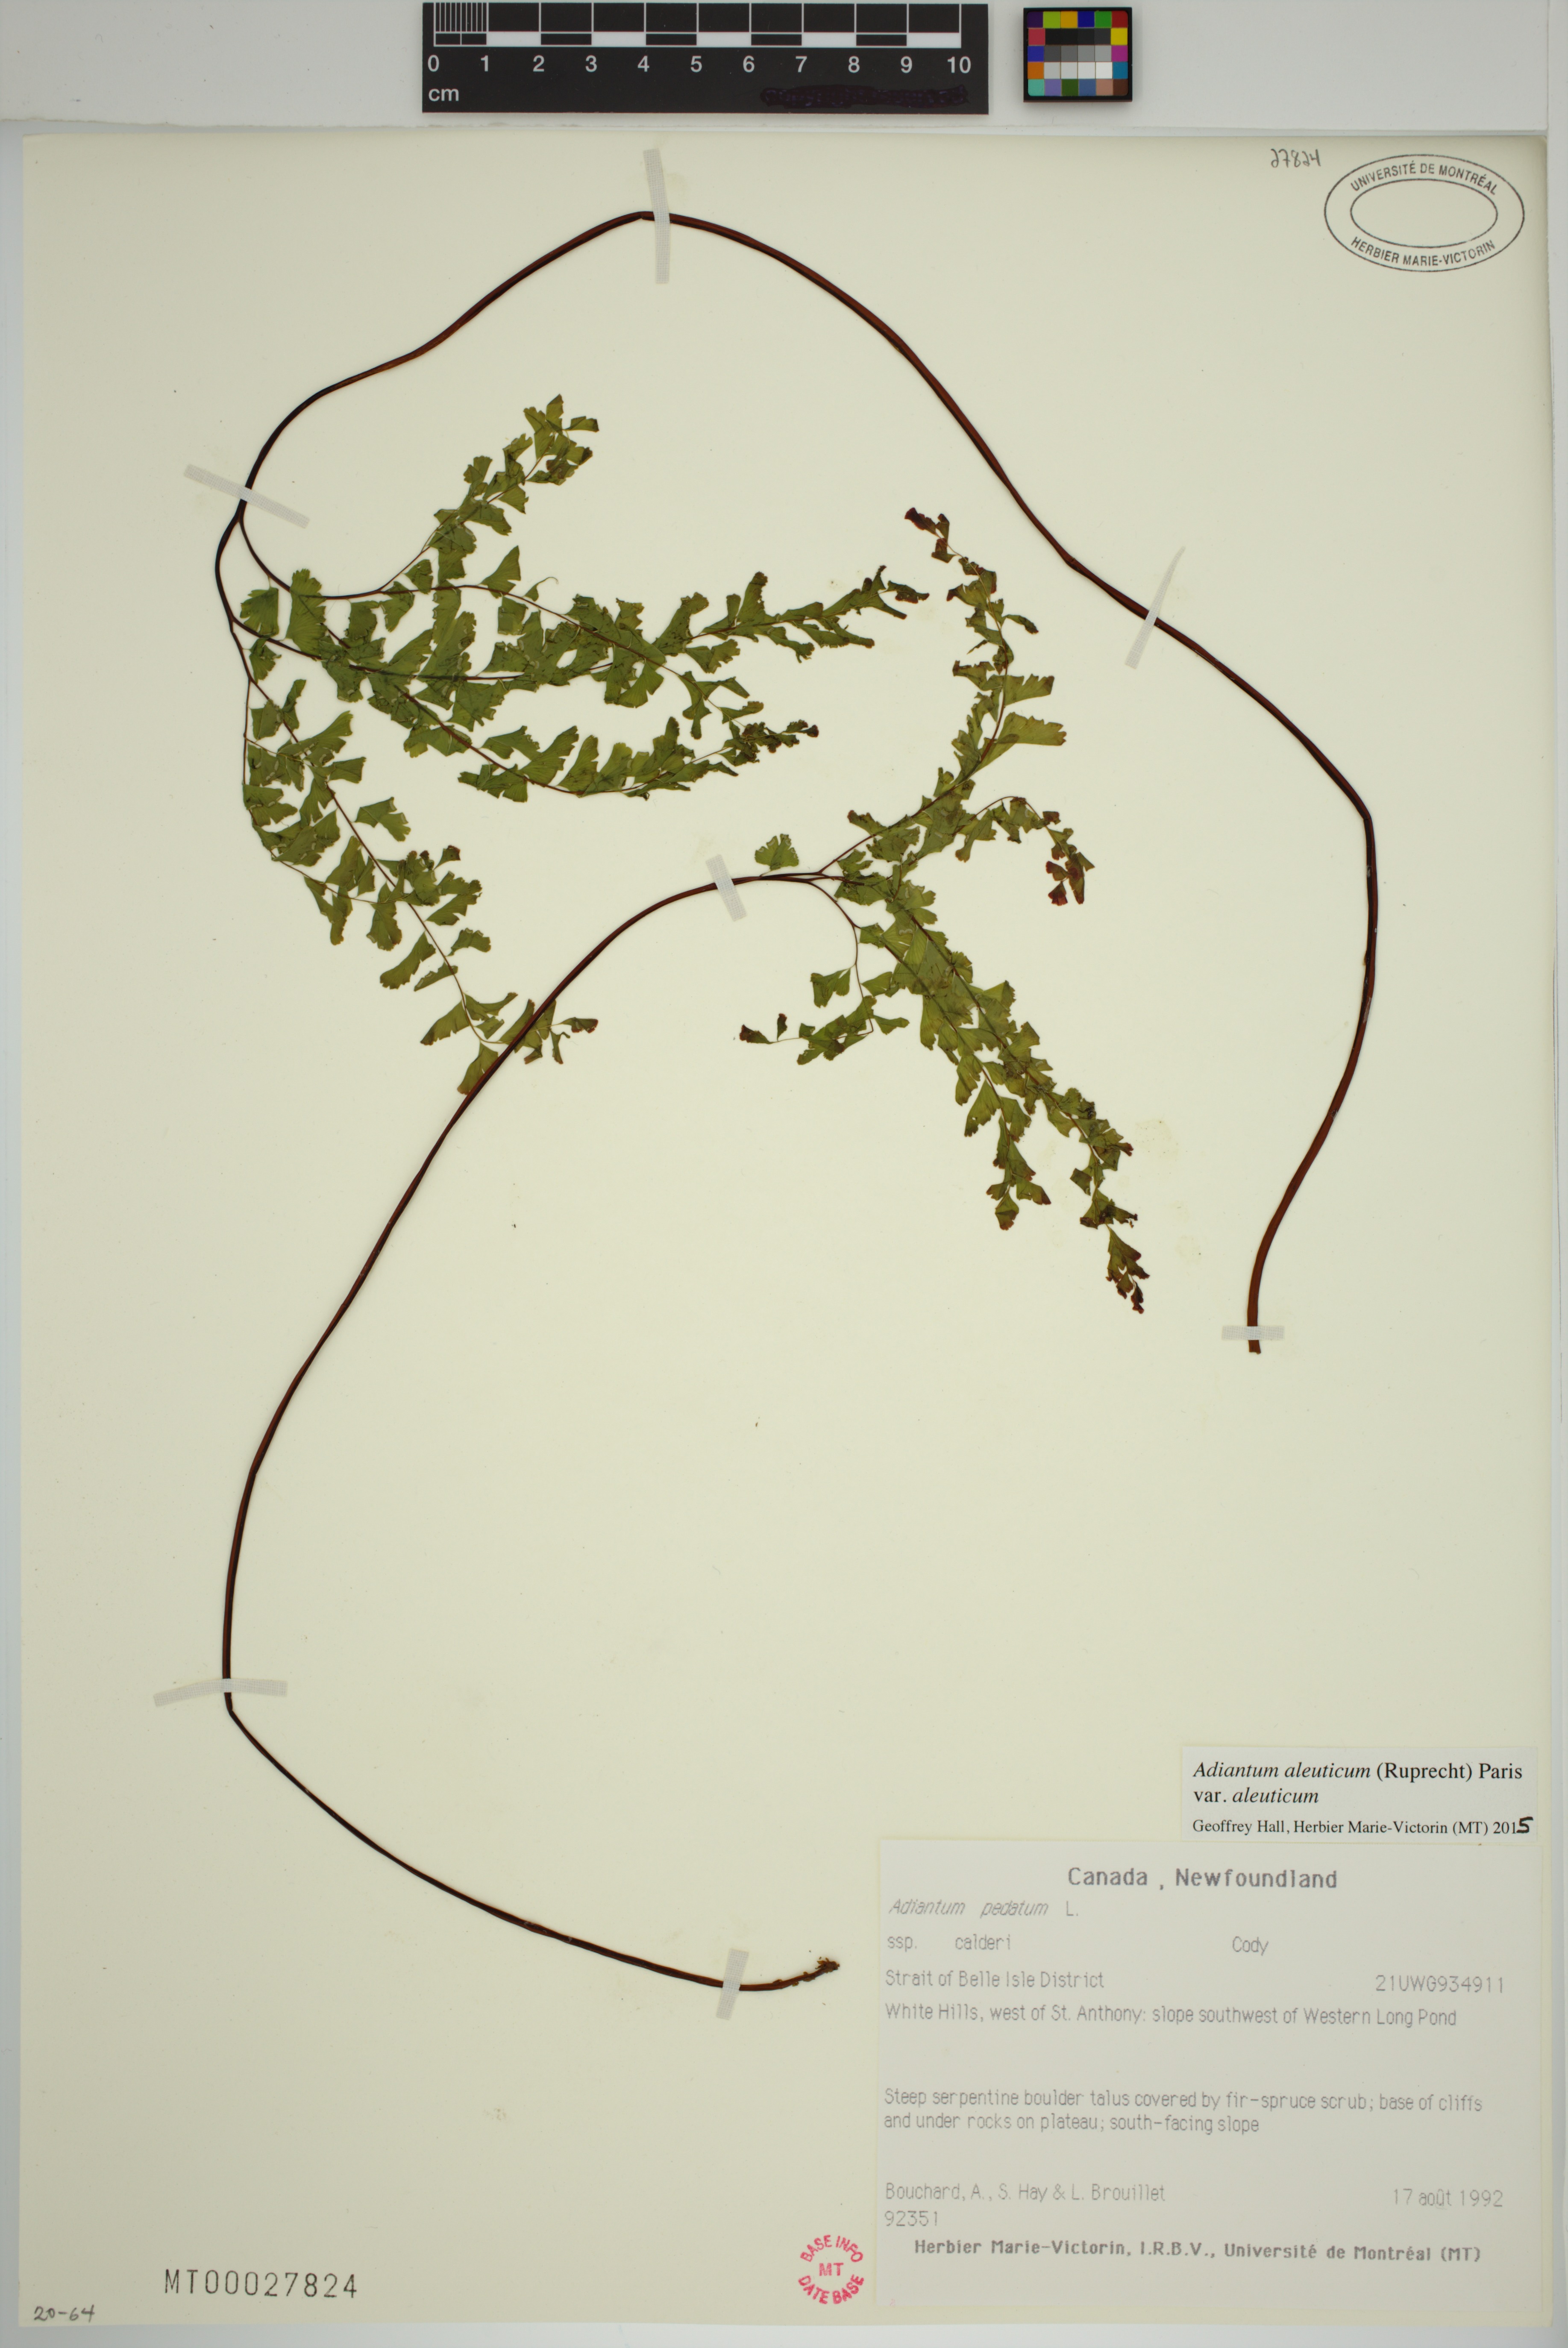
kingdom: Plantae
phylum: Tracheophyta
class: Polypodiopsida
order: Polypodiales
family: Pteridaceae
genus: Adiantum
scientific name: Adiantum aleuticum
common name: Aleutian maidenhair fern
